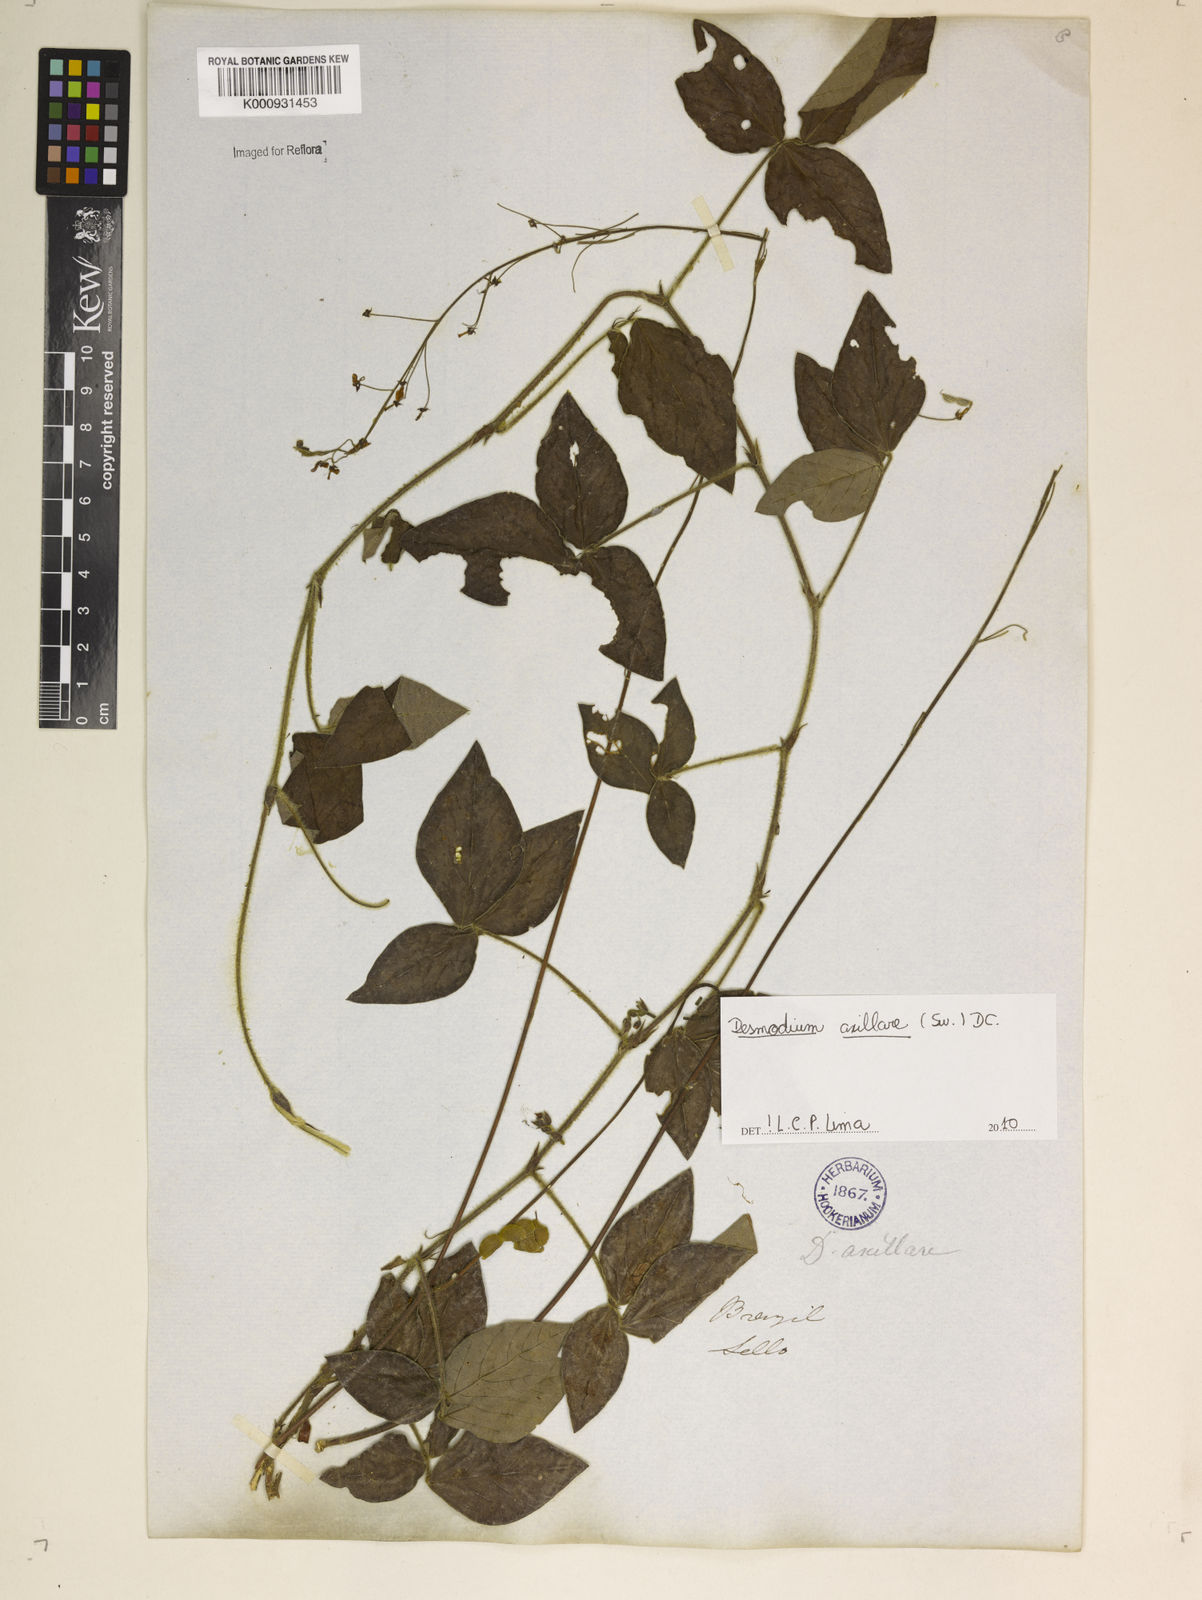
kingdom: Plantae
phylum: Tracheophyta
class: Magnoliopsida
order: Fabales
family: Fabaceae
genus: Desmodium
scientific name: Desmodium axillare
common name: Wire with
